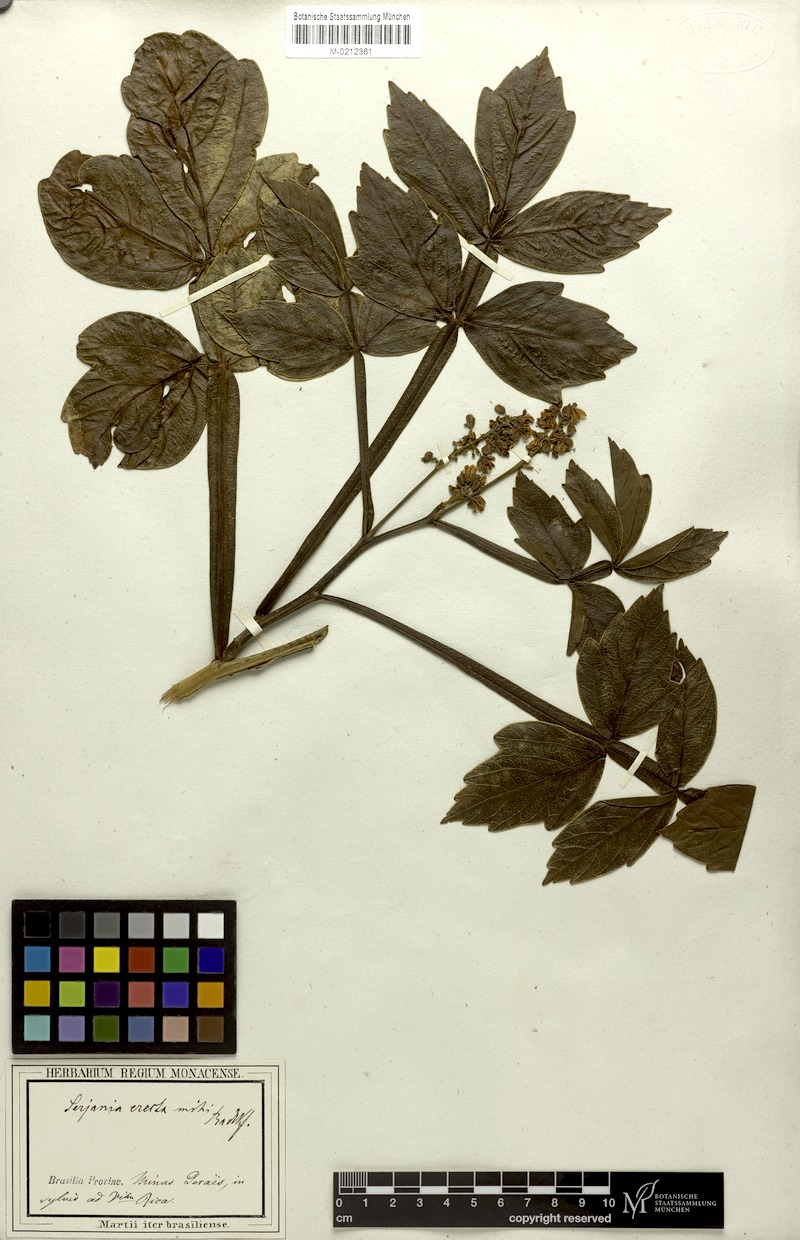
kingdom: Plantae
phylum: Tracheophyta
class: Magnoliopsida
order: Sapindales
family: Sapindaceae
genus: Serjania
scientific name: Serjania erecta
